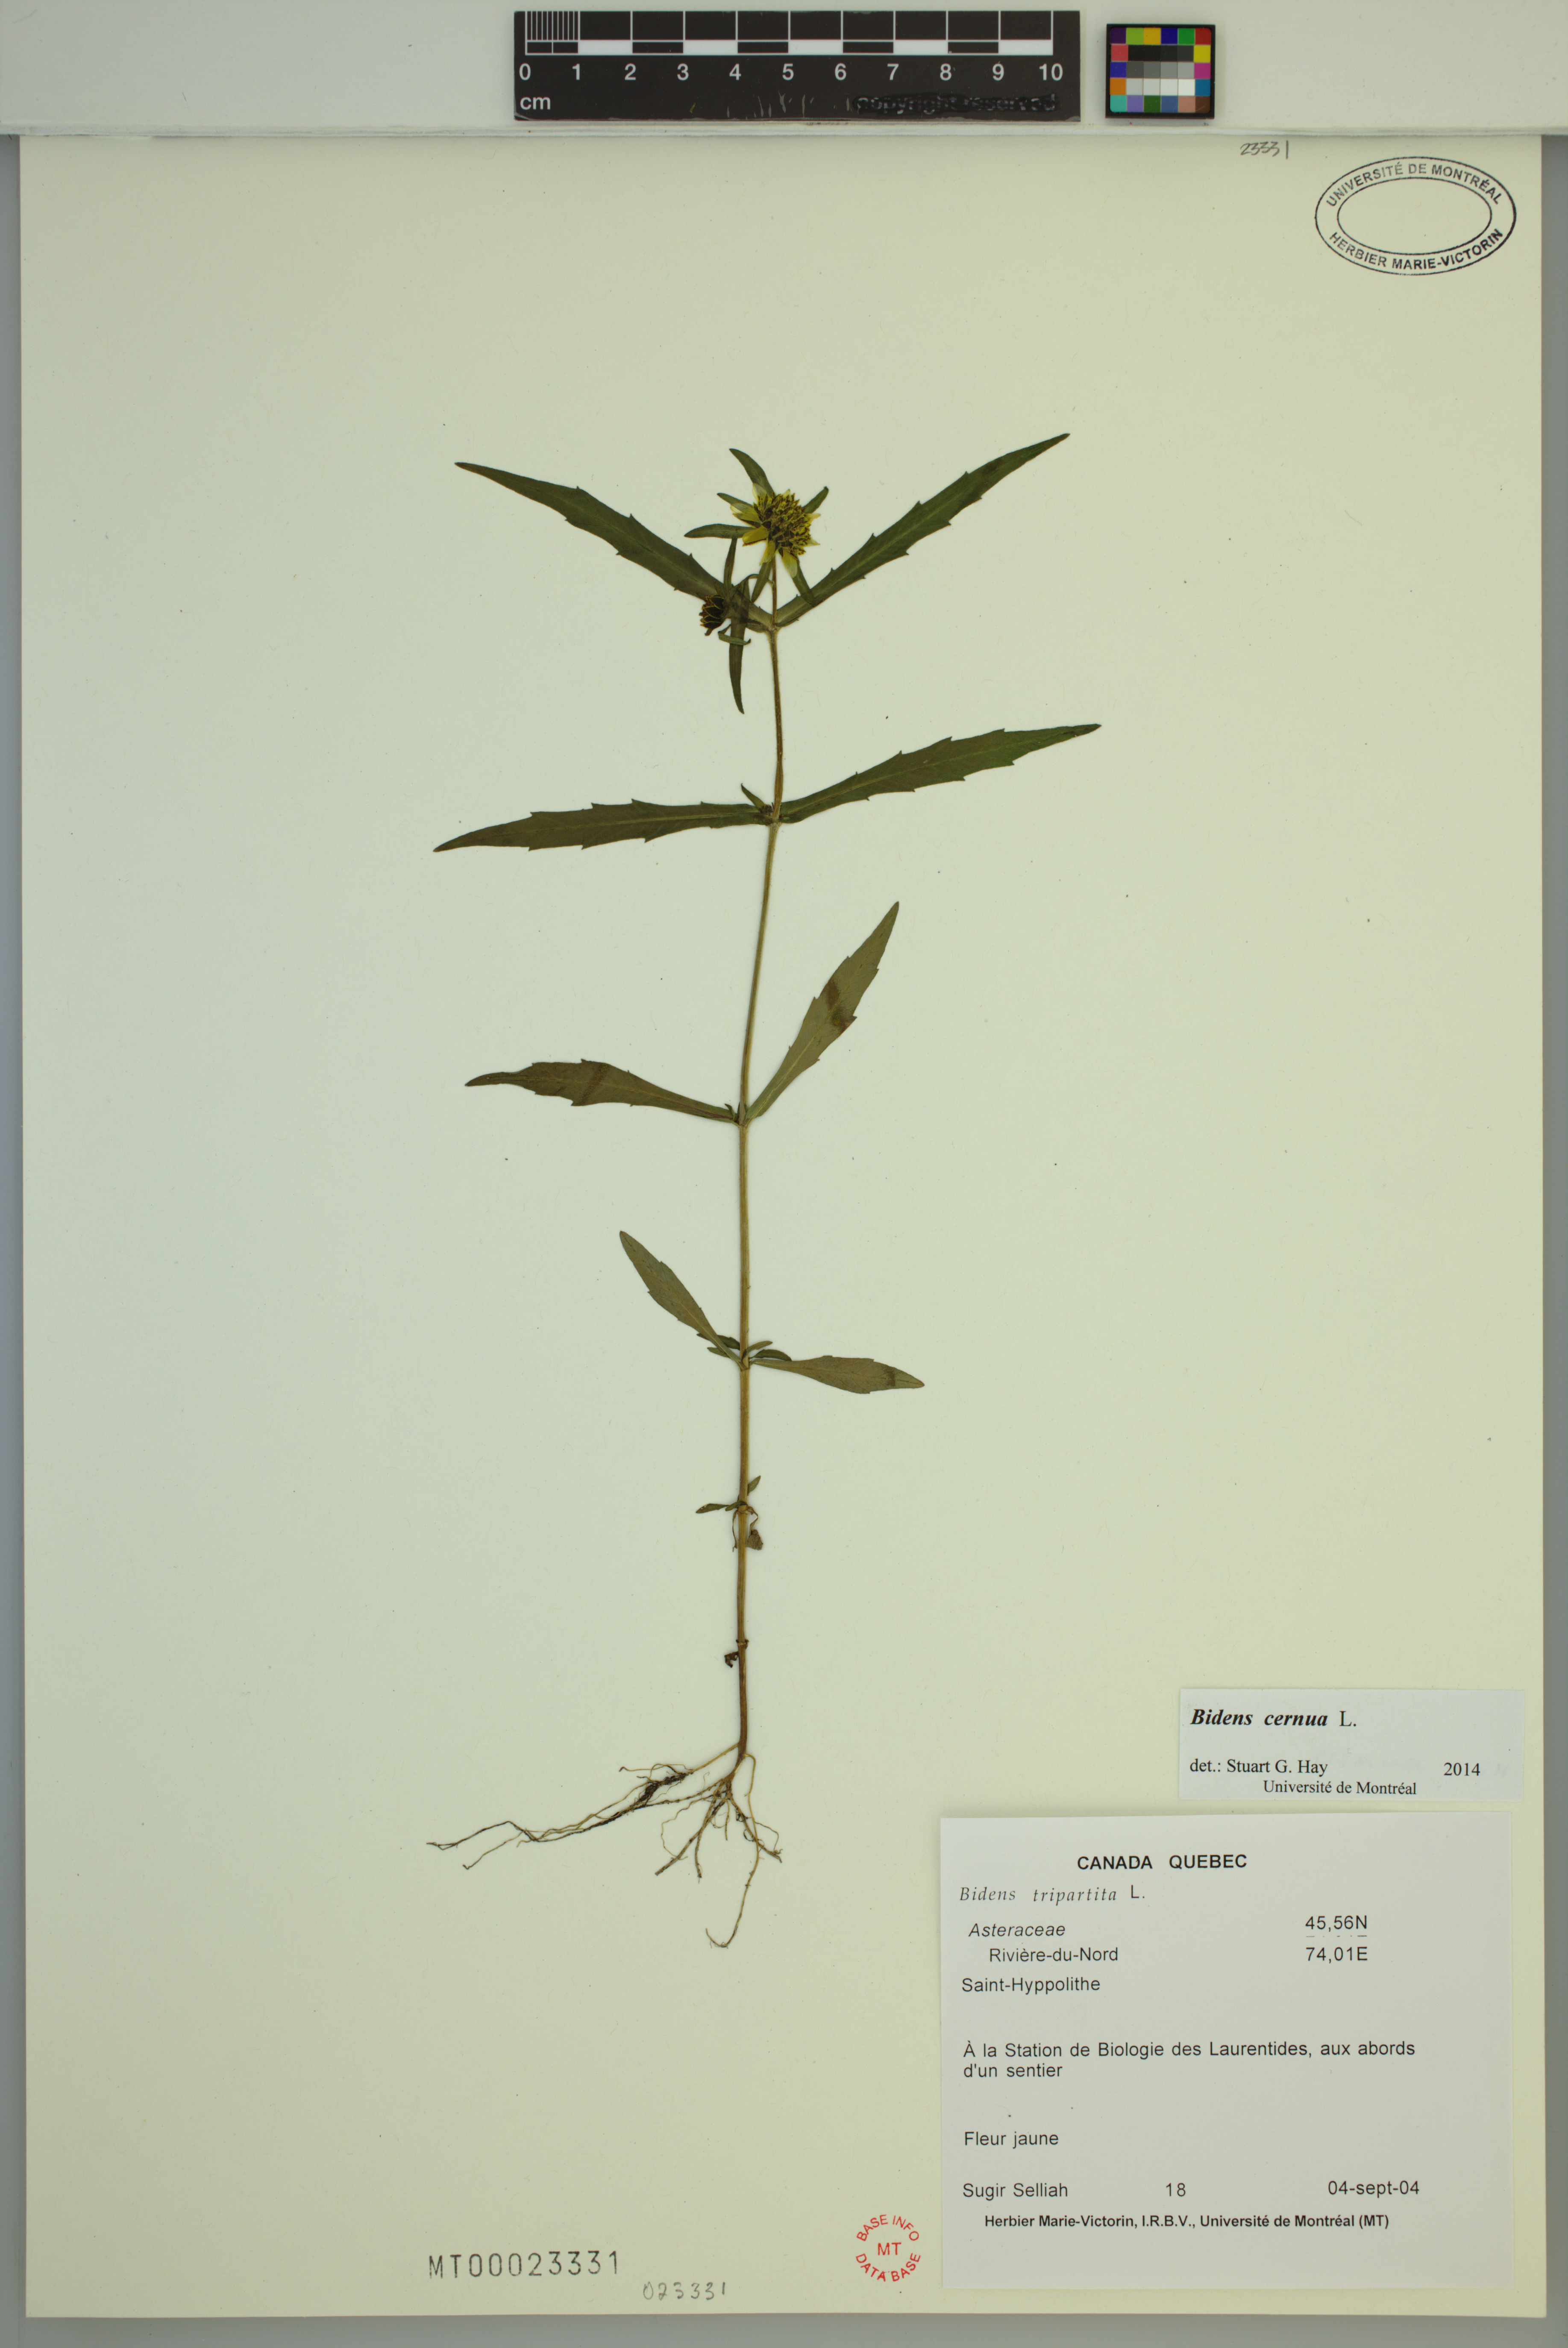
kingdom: Plantae
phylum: Tracheophyta
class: Magnoliopsida
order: Asterales
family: Asteraceae
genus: Bidens
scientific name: Bidens cernua
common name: Nodding bur-marigold
